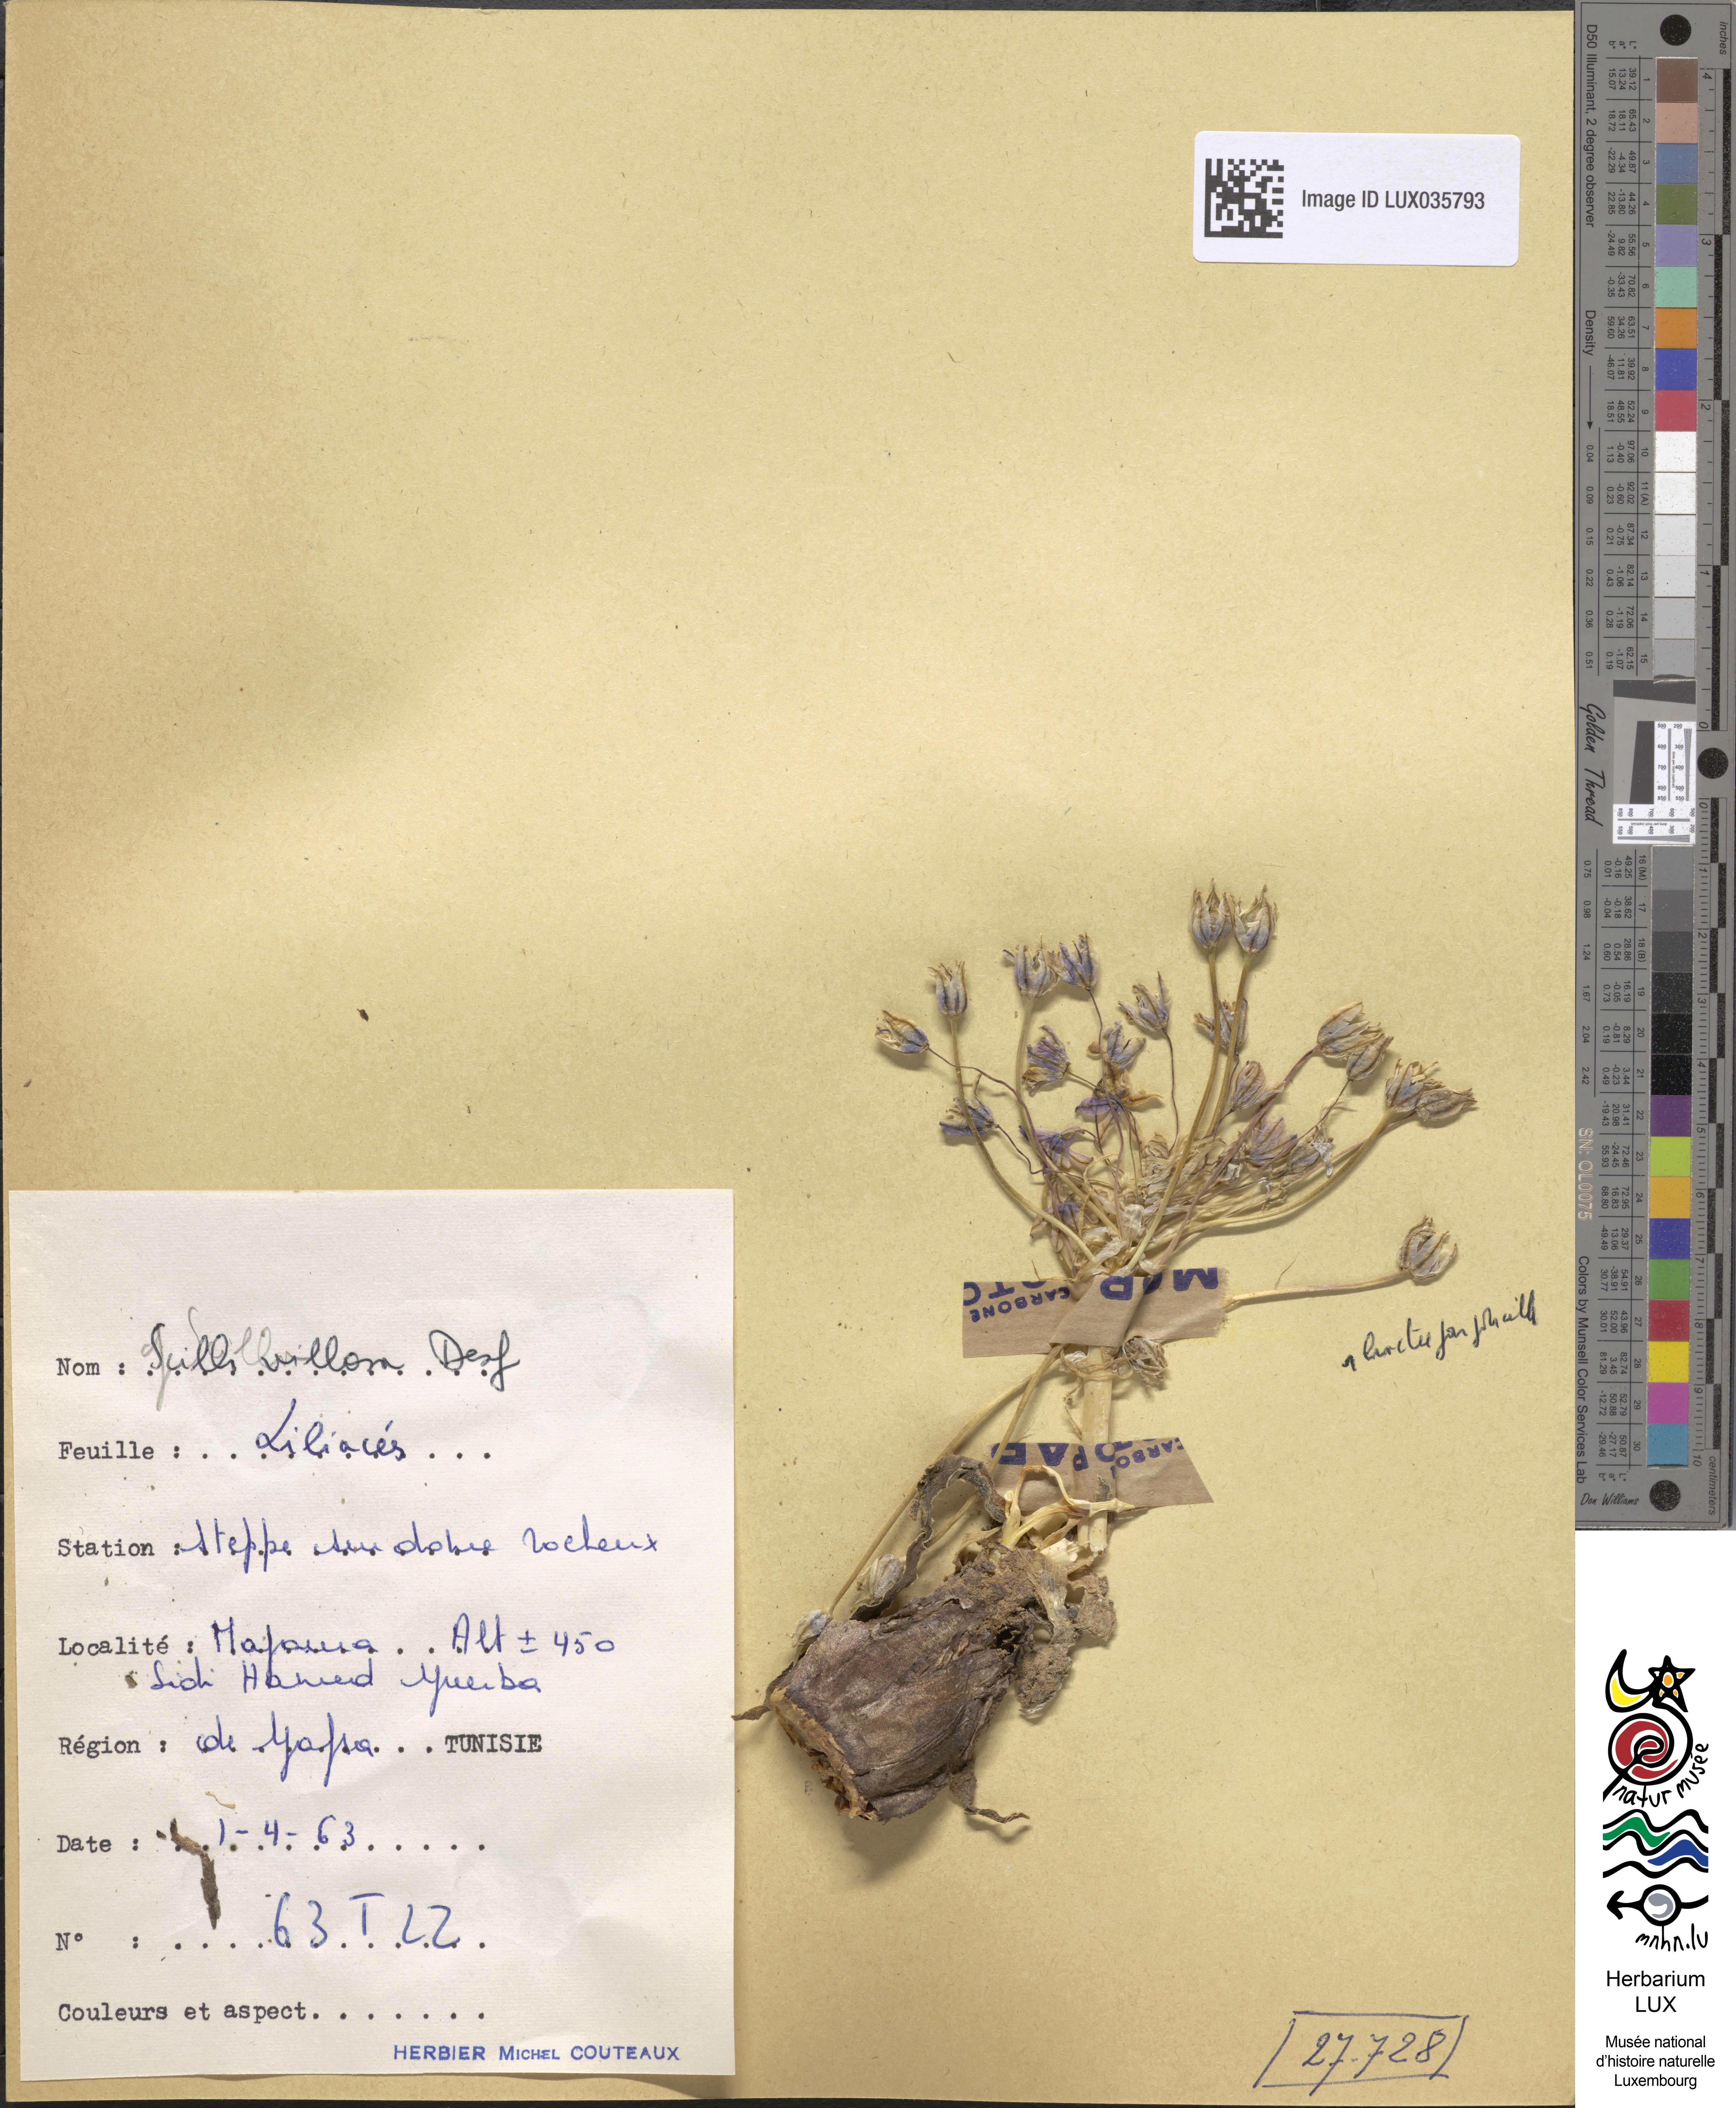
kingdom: Plantae
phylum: Tracheophyta
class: Liliopsida
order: Asparagales
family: Asparagaceae
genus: Scilla
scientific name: Scilla villosa
